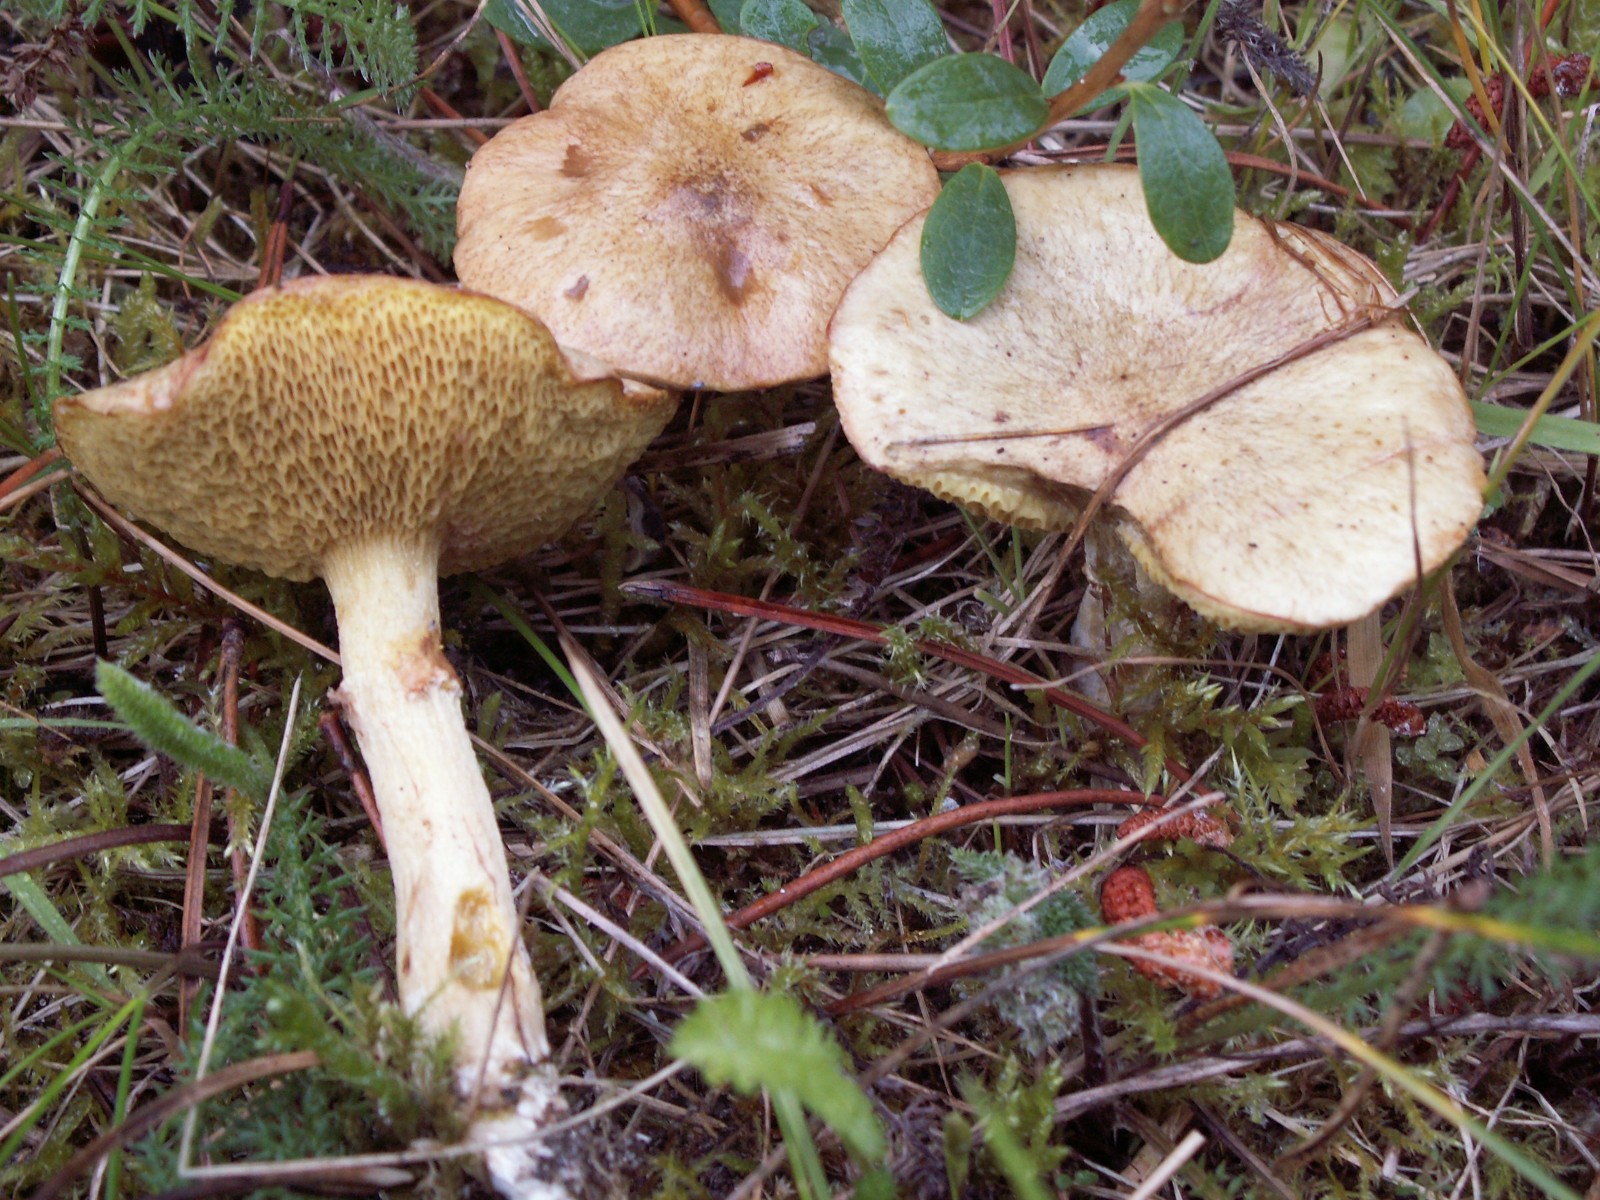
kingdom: Fungi
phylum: Basidiomycota
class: Agaricomycetes
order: Boletales
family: Suillaceae
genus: Suillus
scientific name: Suillus flavidus
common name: mose-slimrørhat
